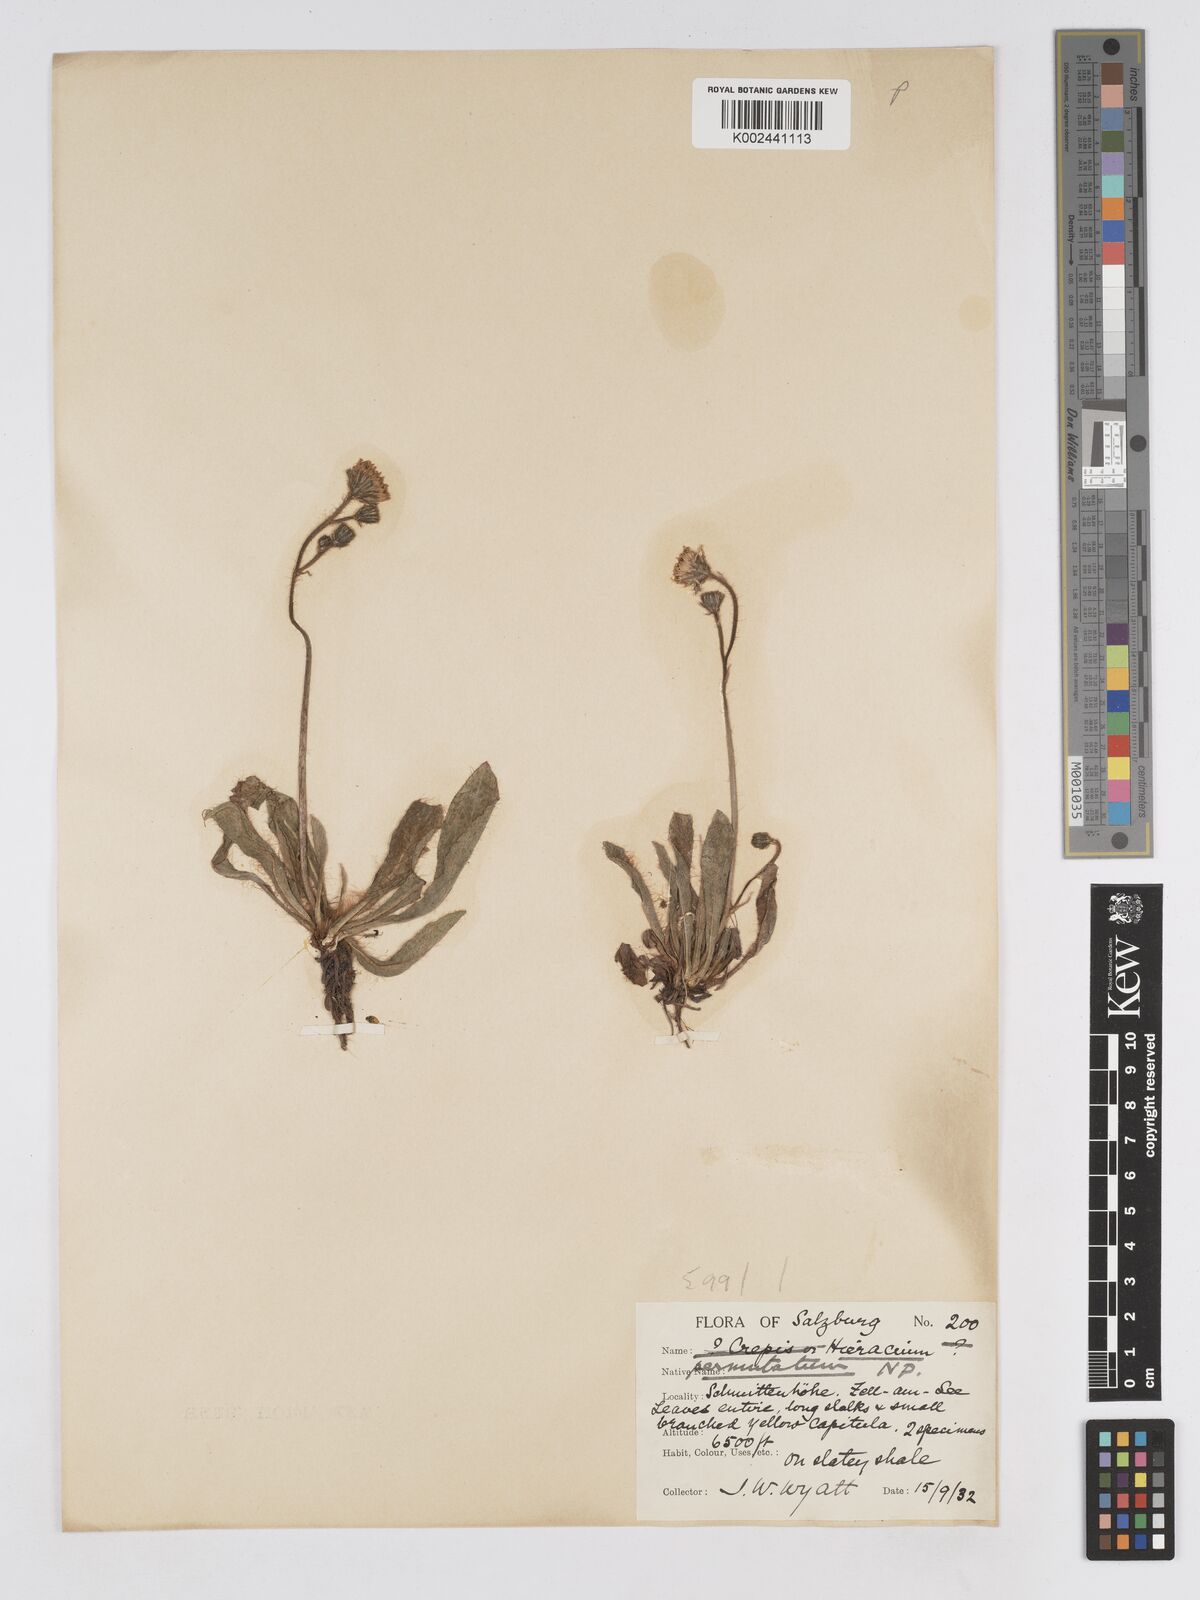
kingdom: Plantae
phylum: Tracheophyta
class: Magnoliopsida
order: Asterales
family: Asteraceae
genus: Pilosella
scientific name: Pilosella permutata
